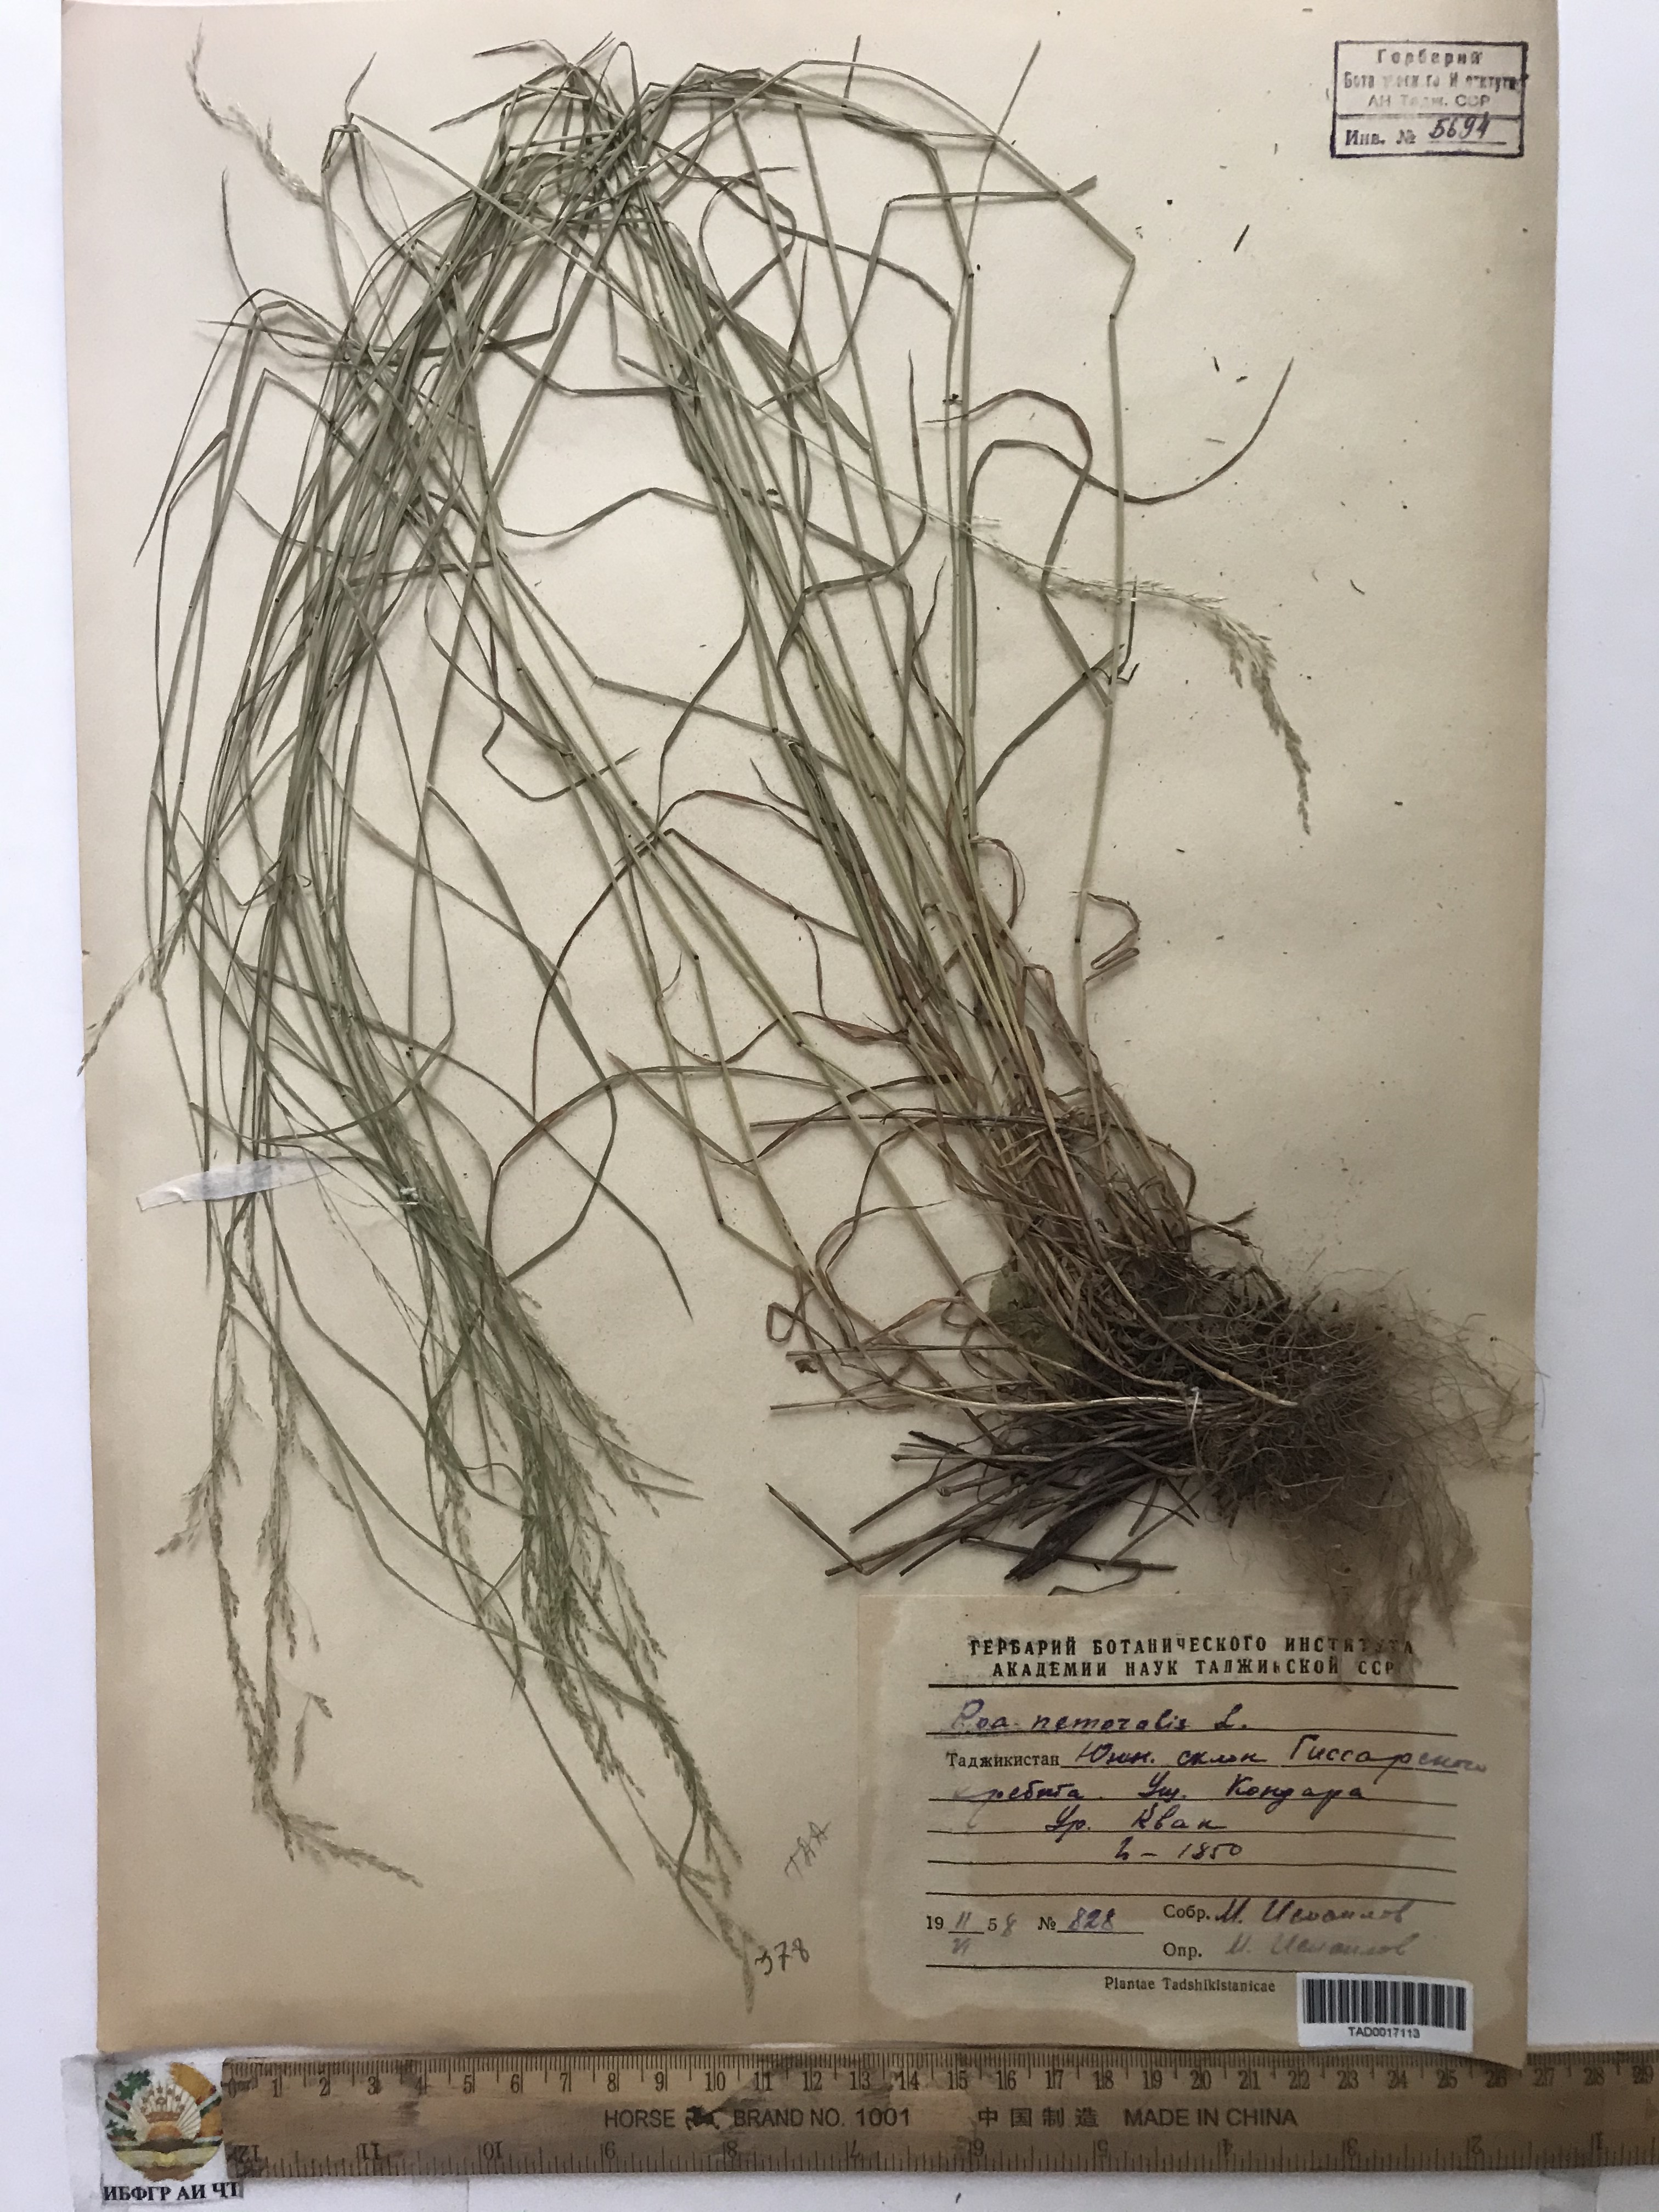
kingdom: Plantae
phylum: Tracheophyta
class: Liliopsida
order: Poales
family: Poaceae
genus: Poa
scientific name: Poa nemoralis
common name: Wood bluegrass
